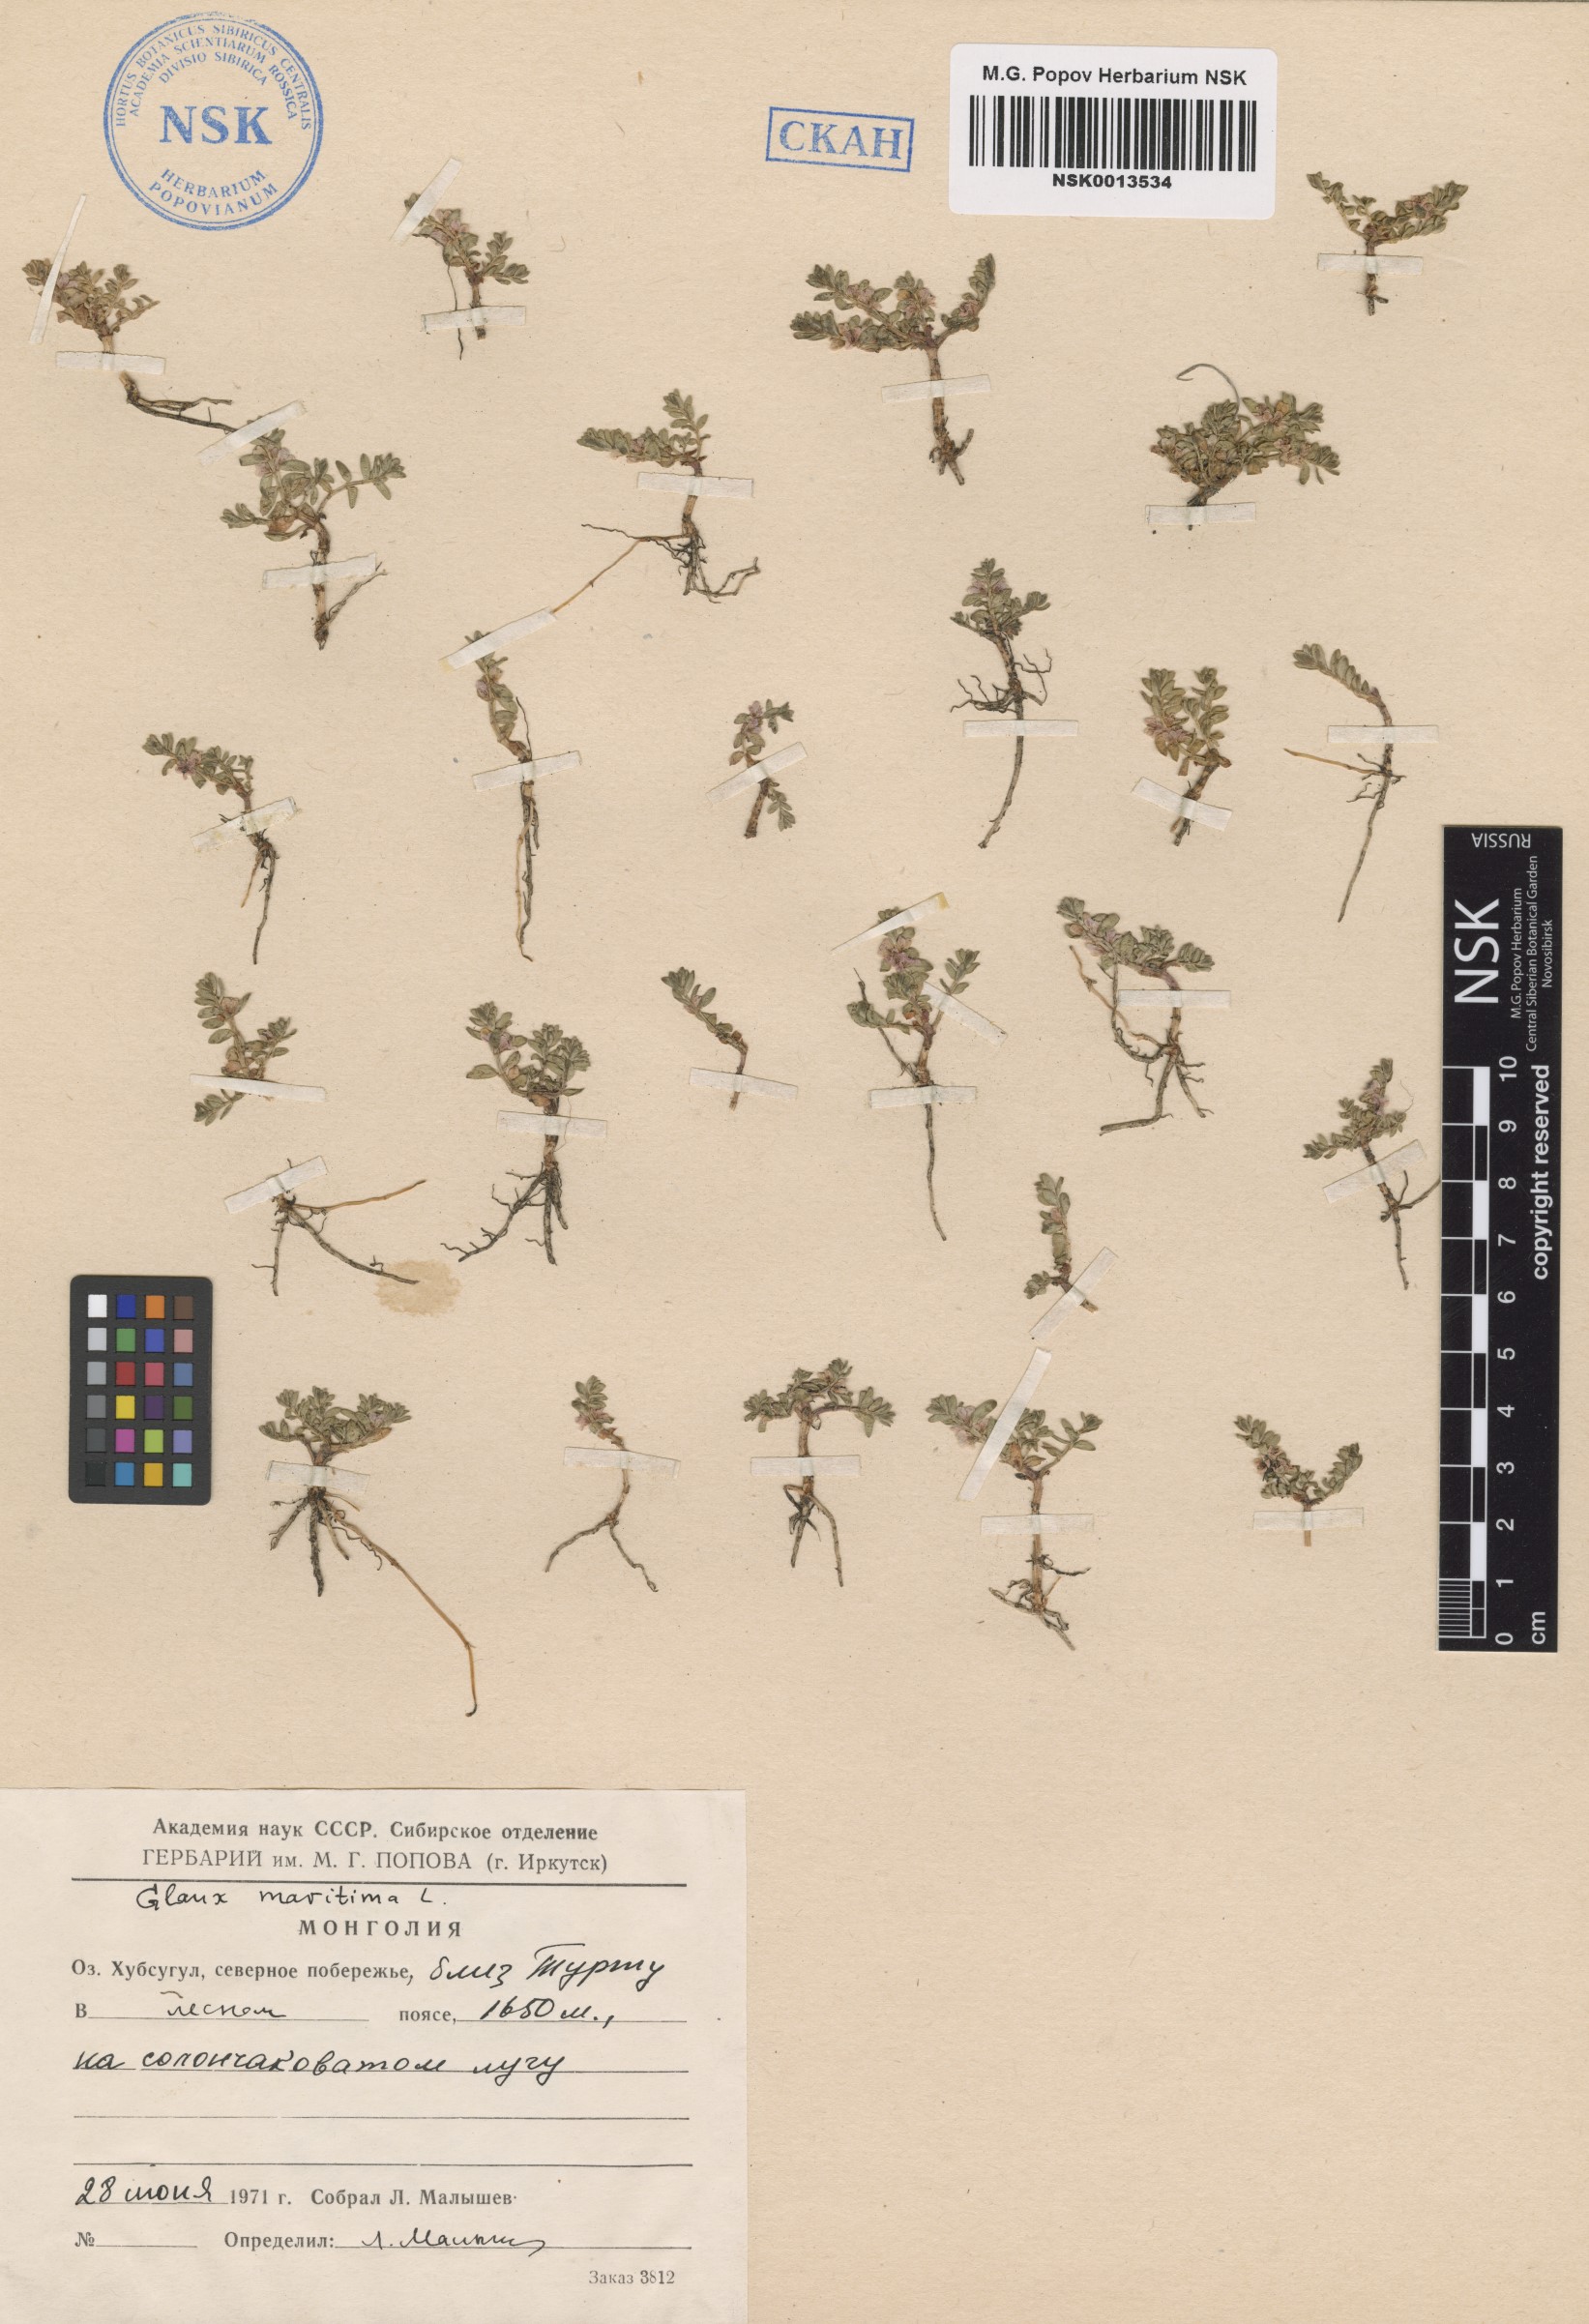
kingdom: Plantae
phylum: Tracheophyta
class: Magnoliopsida
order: Ericales
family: Primulaceae
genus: Lysimachia
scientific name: Lysimachia maritima
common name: Sea milkwort
